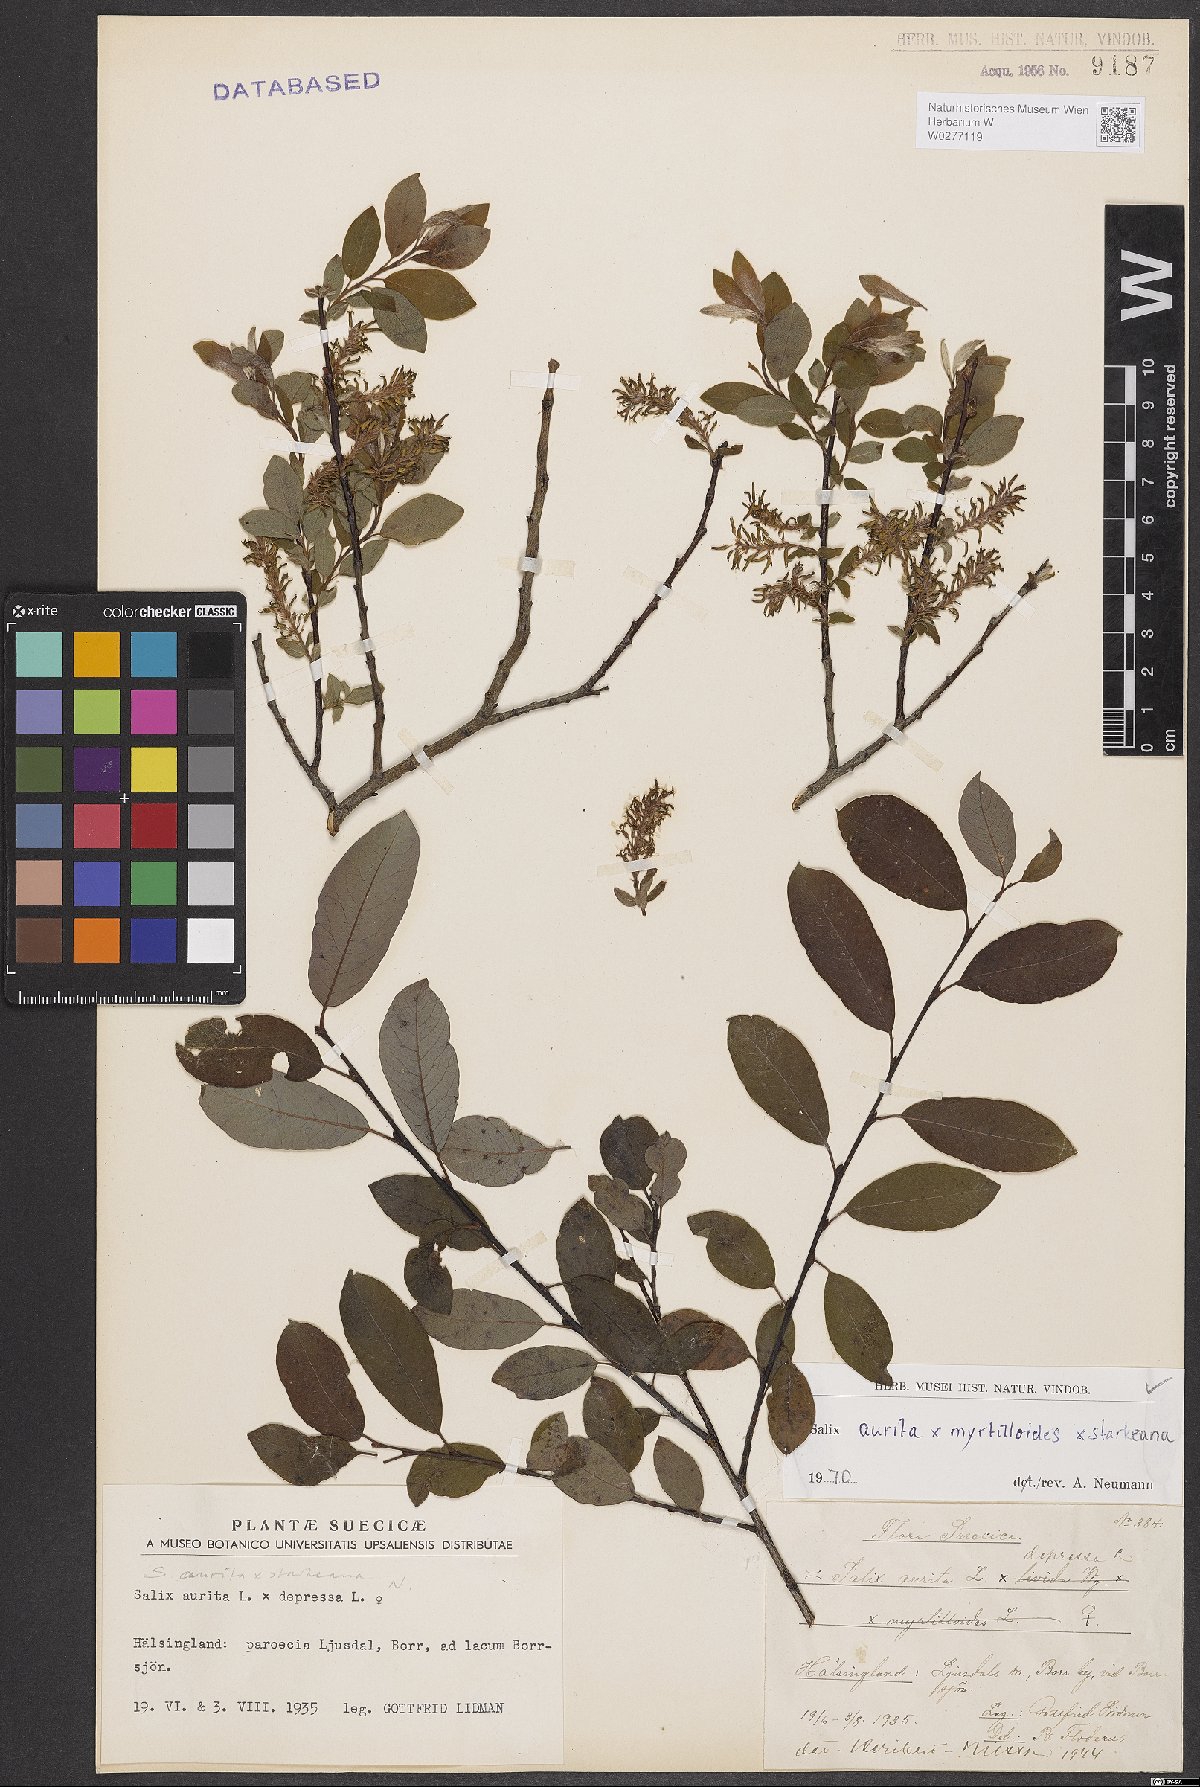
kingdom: Plantae
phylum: Tracheophyta
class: Magnoliopsida
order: Malpighiales
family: Salicaceae
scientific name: Salicaceae
